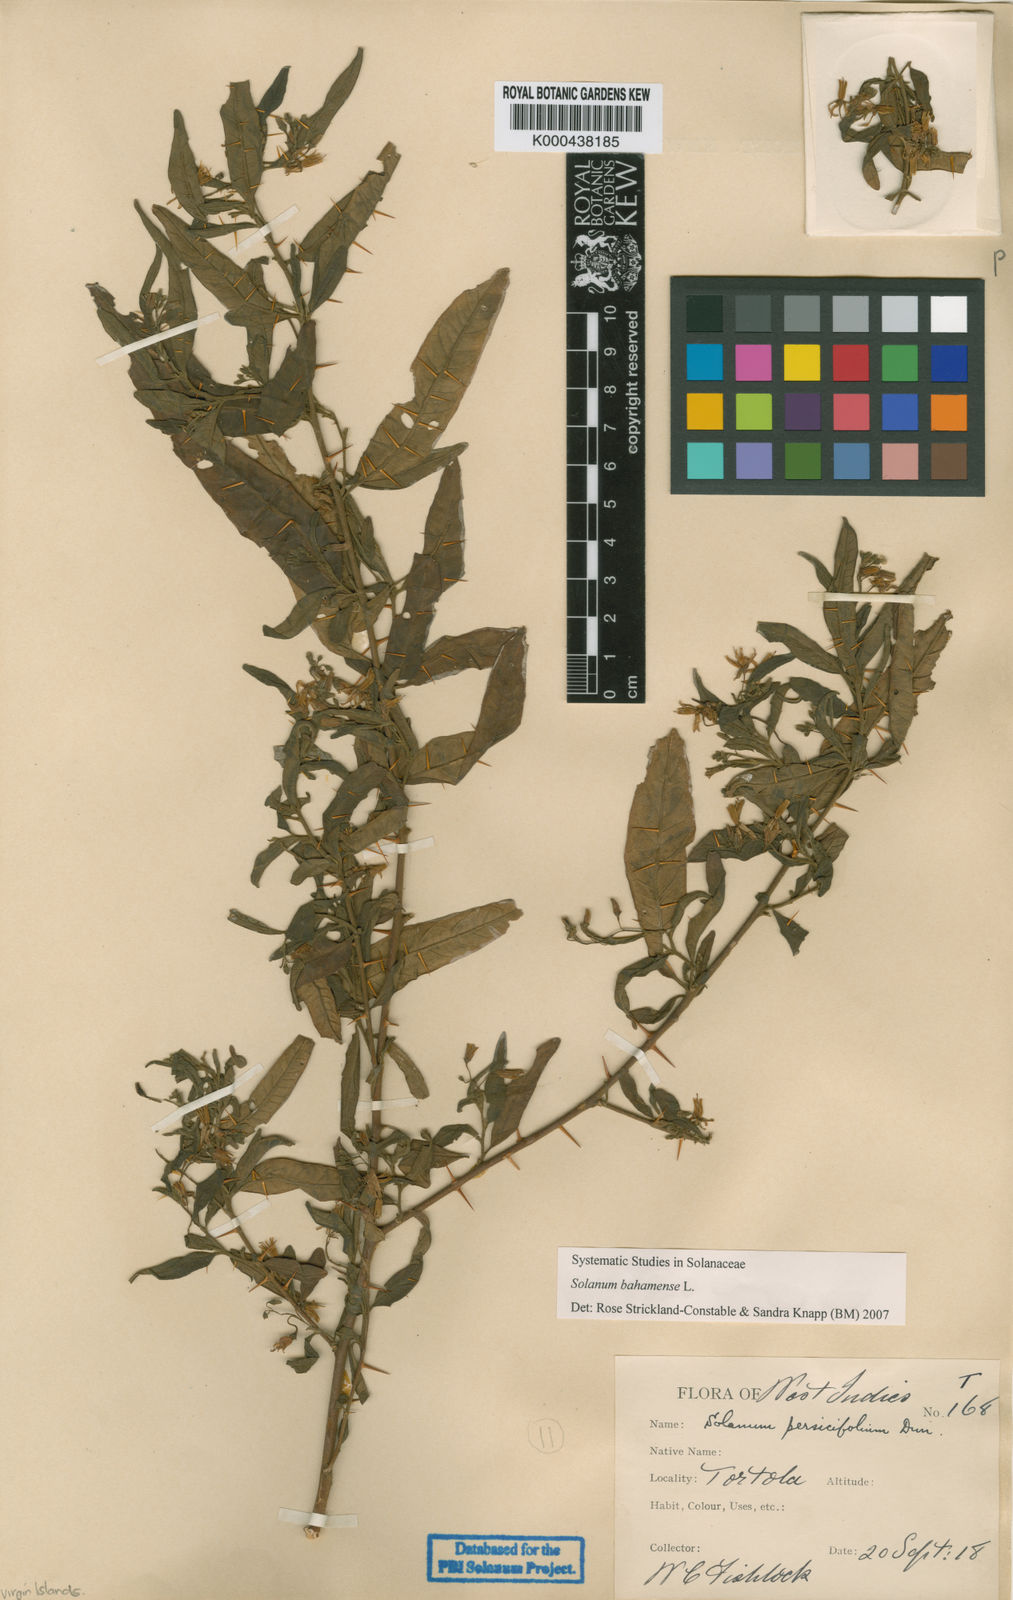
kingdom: Plantae
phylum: Tracheophyta
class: Magnoliopsida
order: Solanales
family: Solanaceae
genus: Solanum
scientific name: Solanum bahamense
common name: Canker-berry
